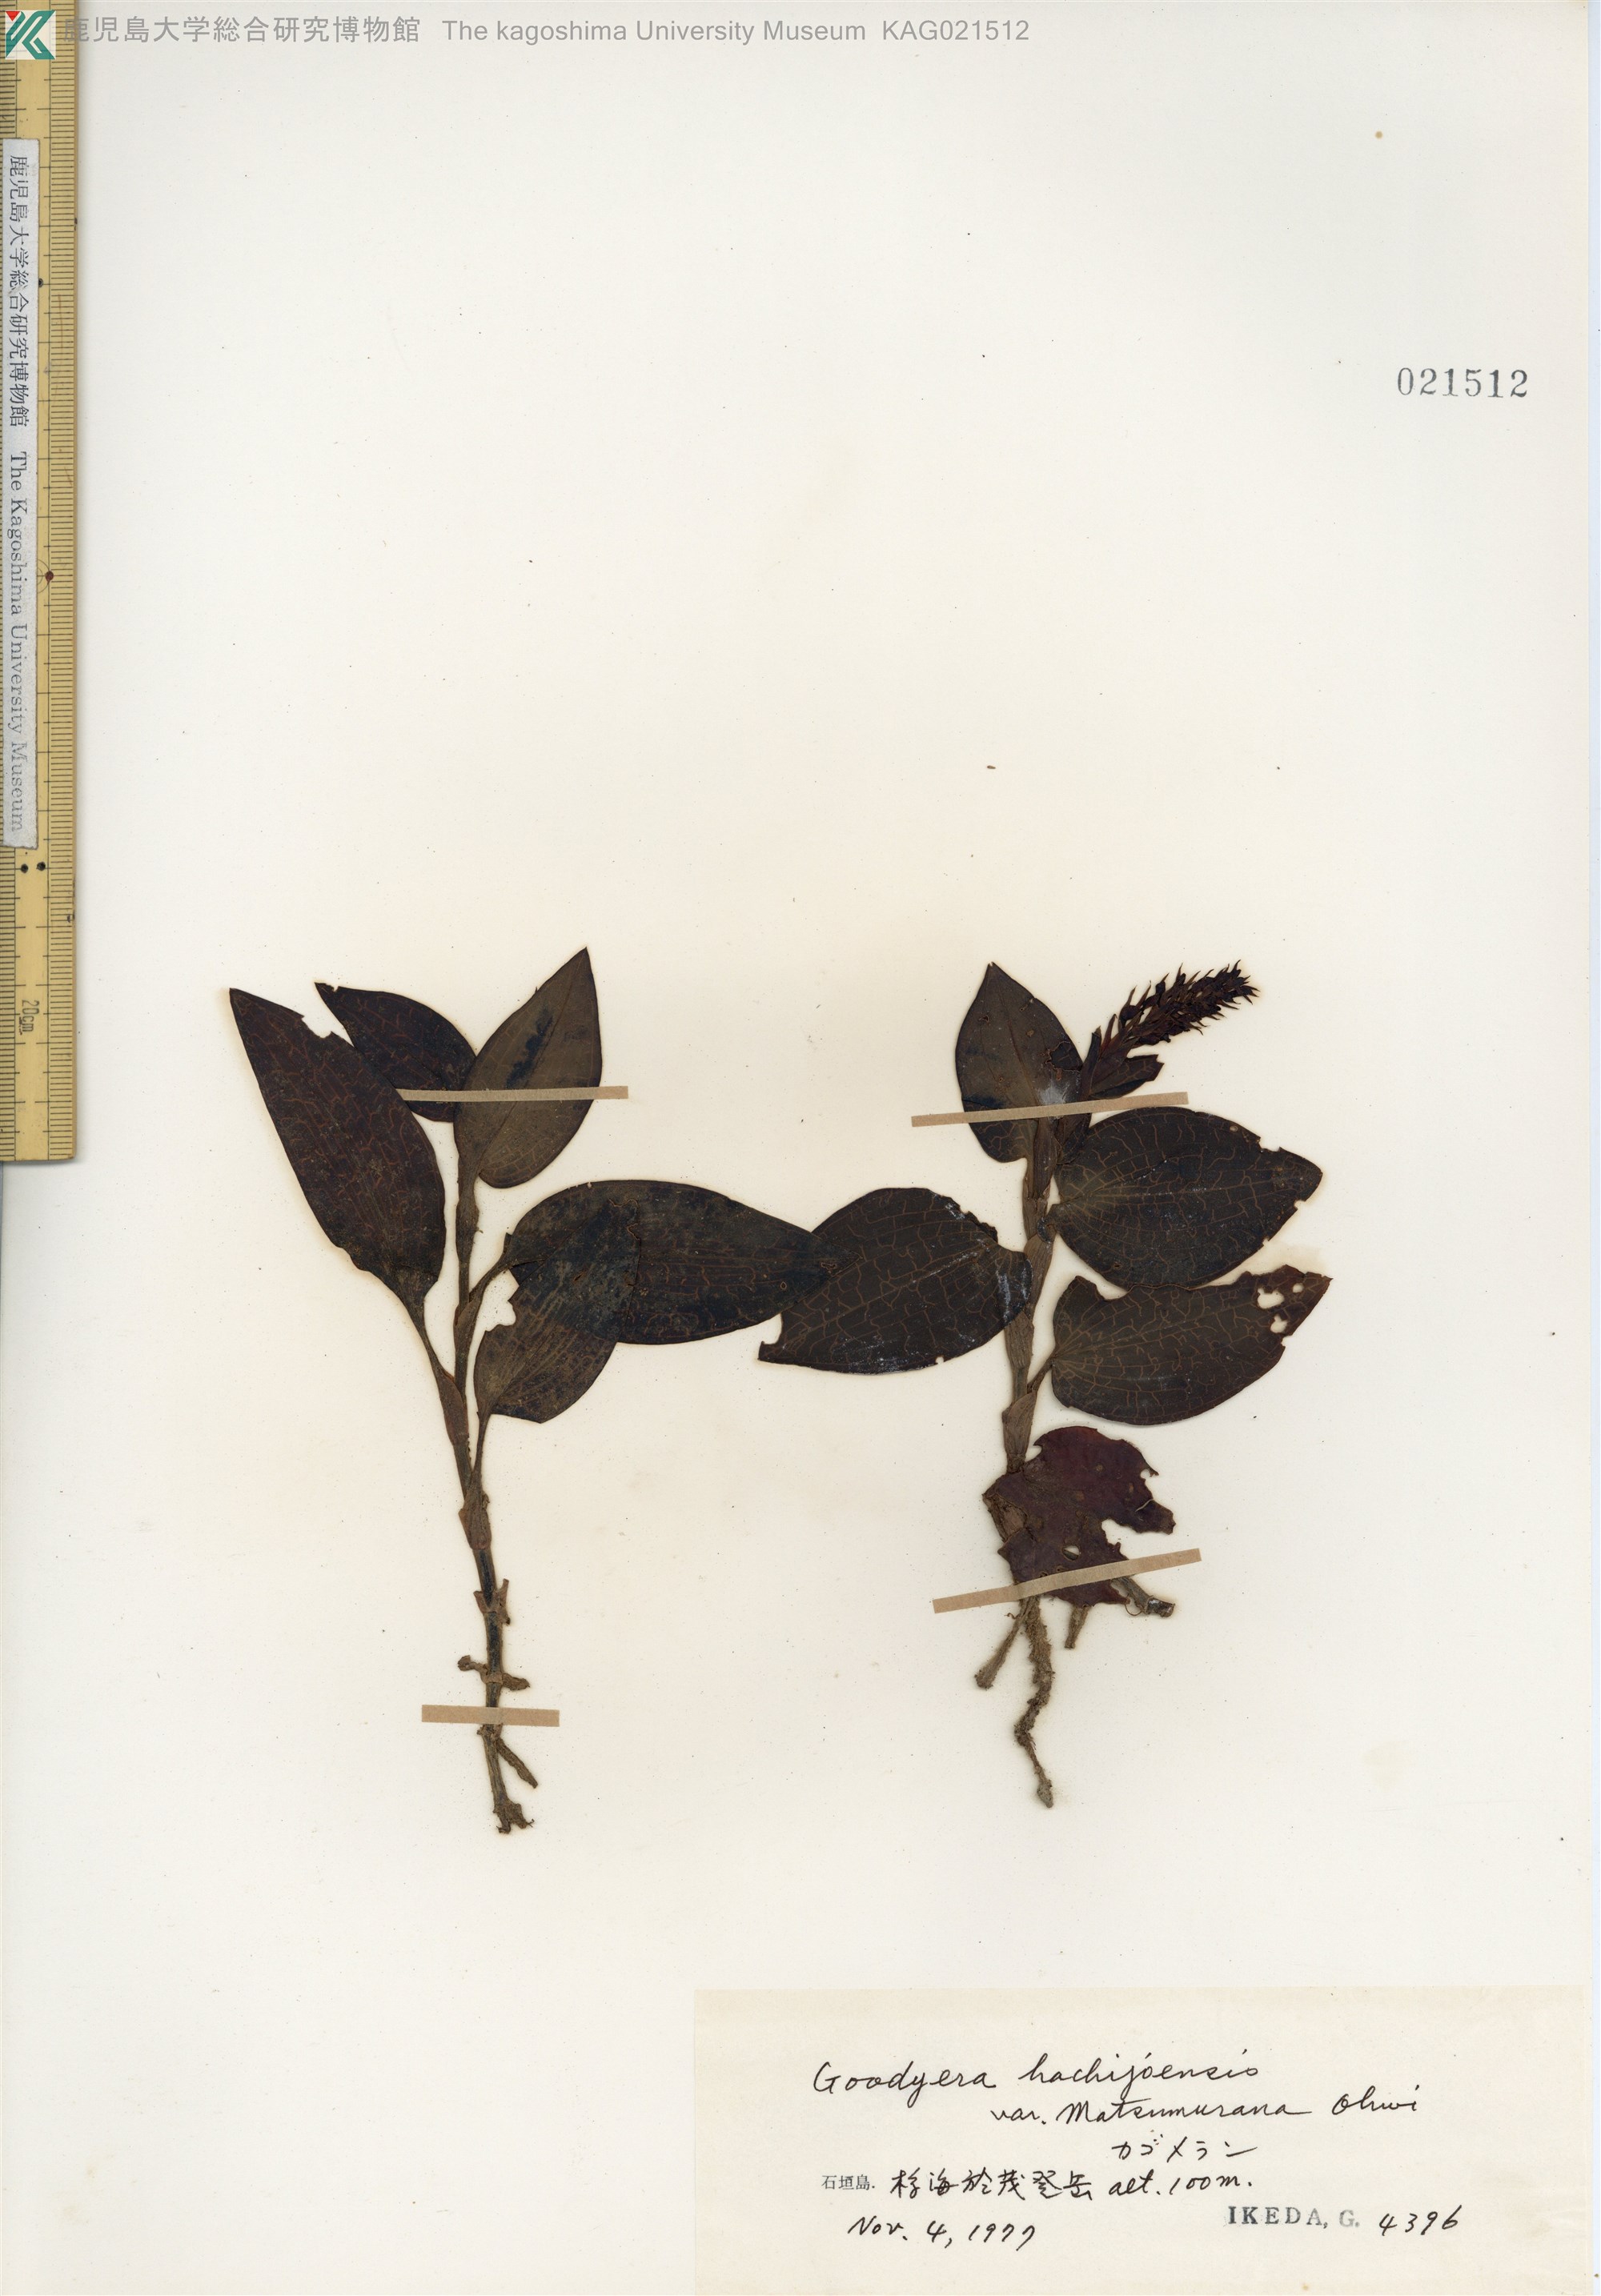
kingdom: Plantae
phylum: Tracheophyta
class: Liliopsida
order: Asparagales
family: Orchidaceae
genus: Goodyera
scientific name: Goodyera hachijoensis
